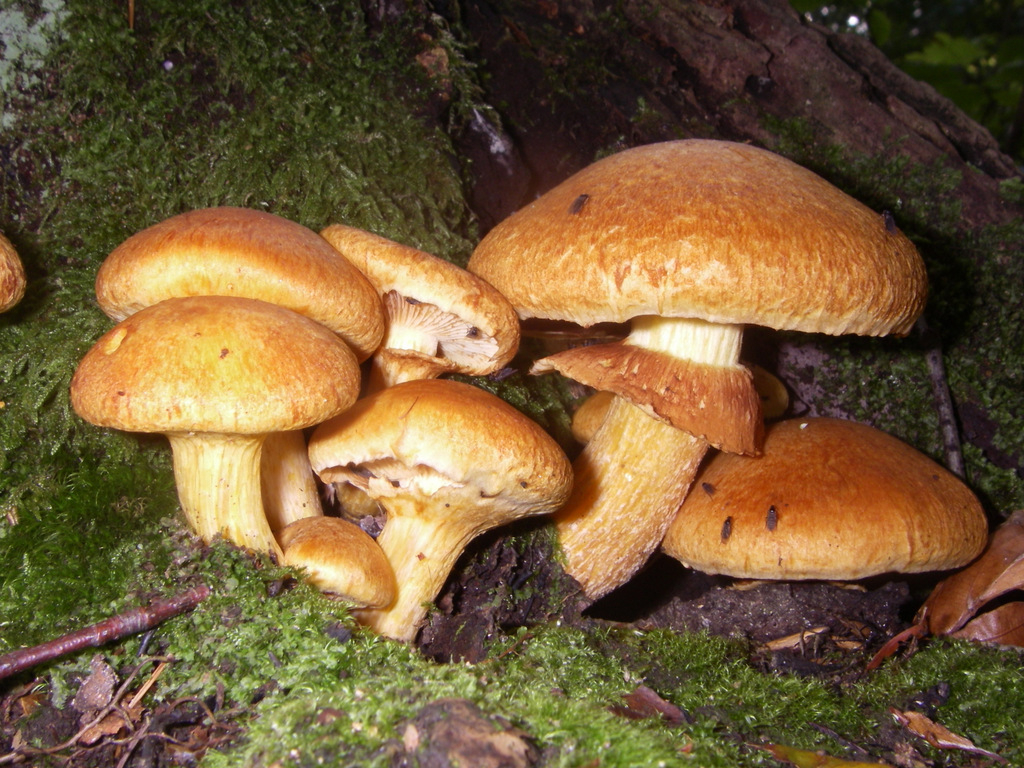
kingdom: Fungi
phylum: Basidiomycota
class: Agaricomycetes
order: Agaricales
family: Hymenogastraceae
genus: Gymnopilus
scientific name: Gymnopilus spectabilis
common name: fibret flammehat
